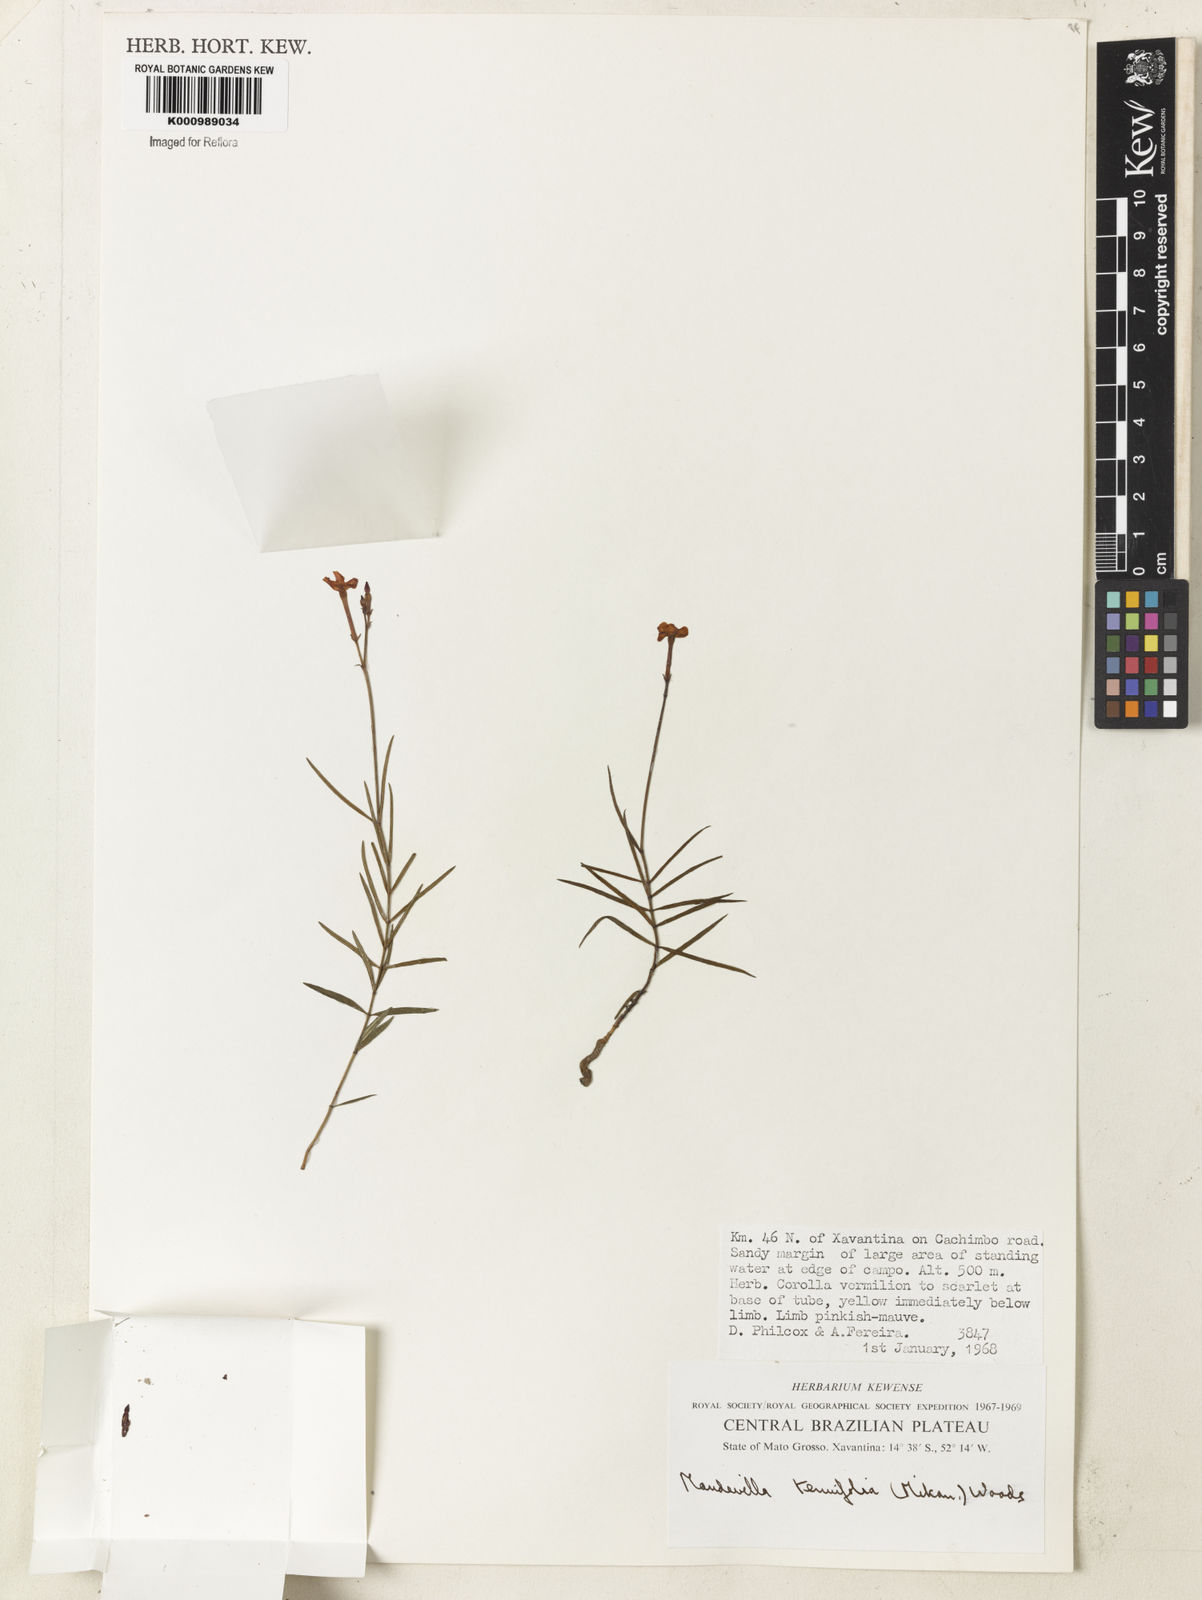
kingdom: Plantae
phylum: Tracheophyta
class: Magnoliopsida
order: Gentianales
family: Apocynaceae
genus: Mandevilla
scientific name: Mandevilla tenuifolia
